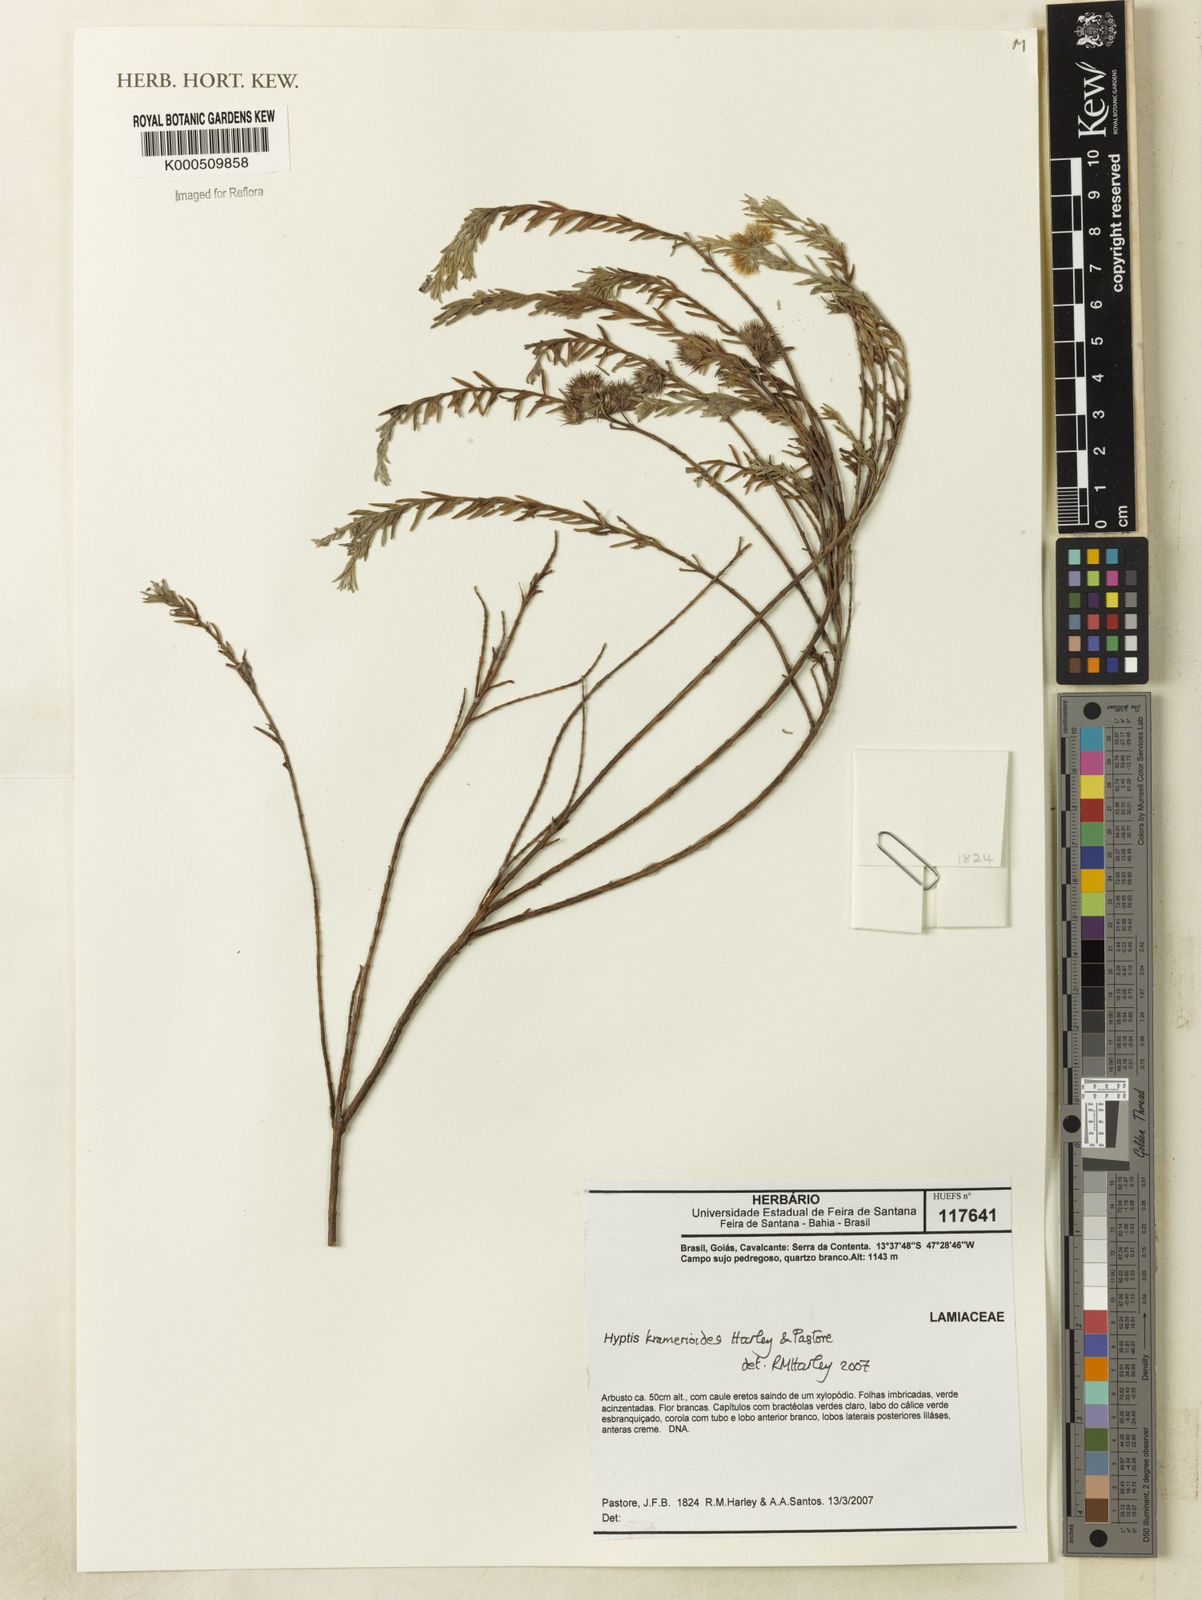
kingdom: Plantae
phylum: Tracheophyta
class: Magnoliopsida
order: Lamiales
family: Lamiaceae
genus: Hyptis
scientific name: Hyptis kramerioides
